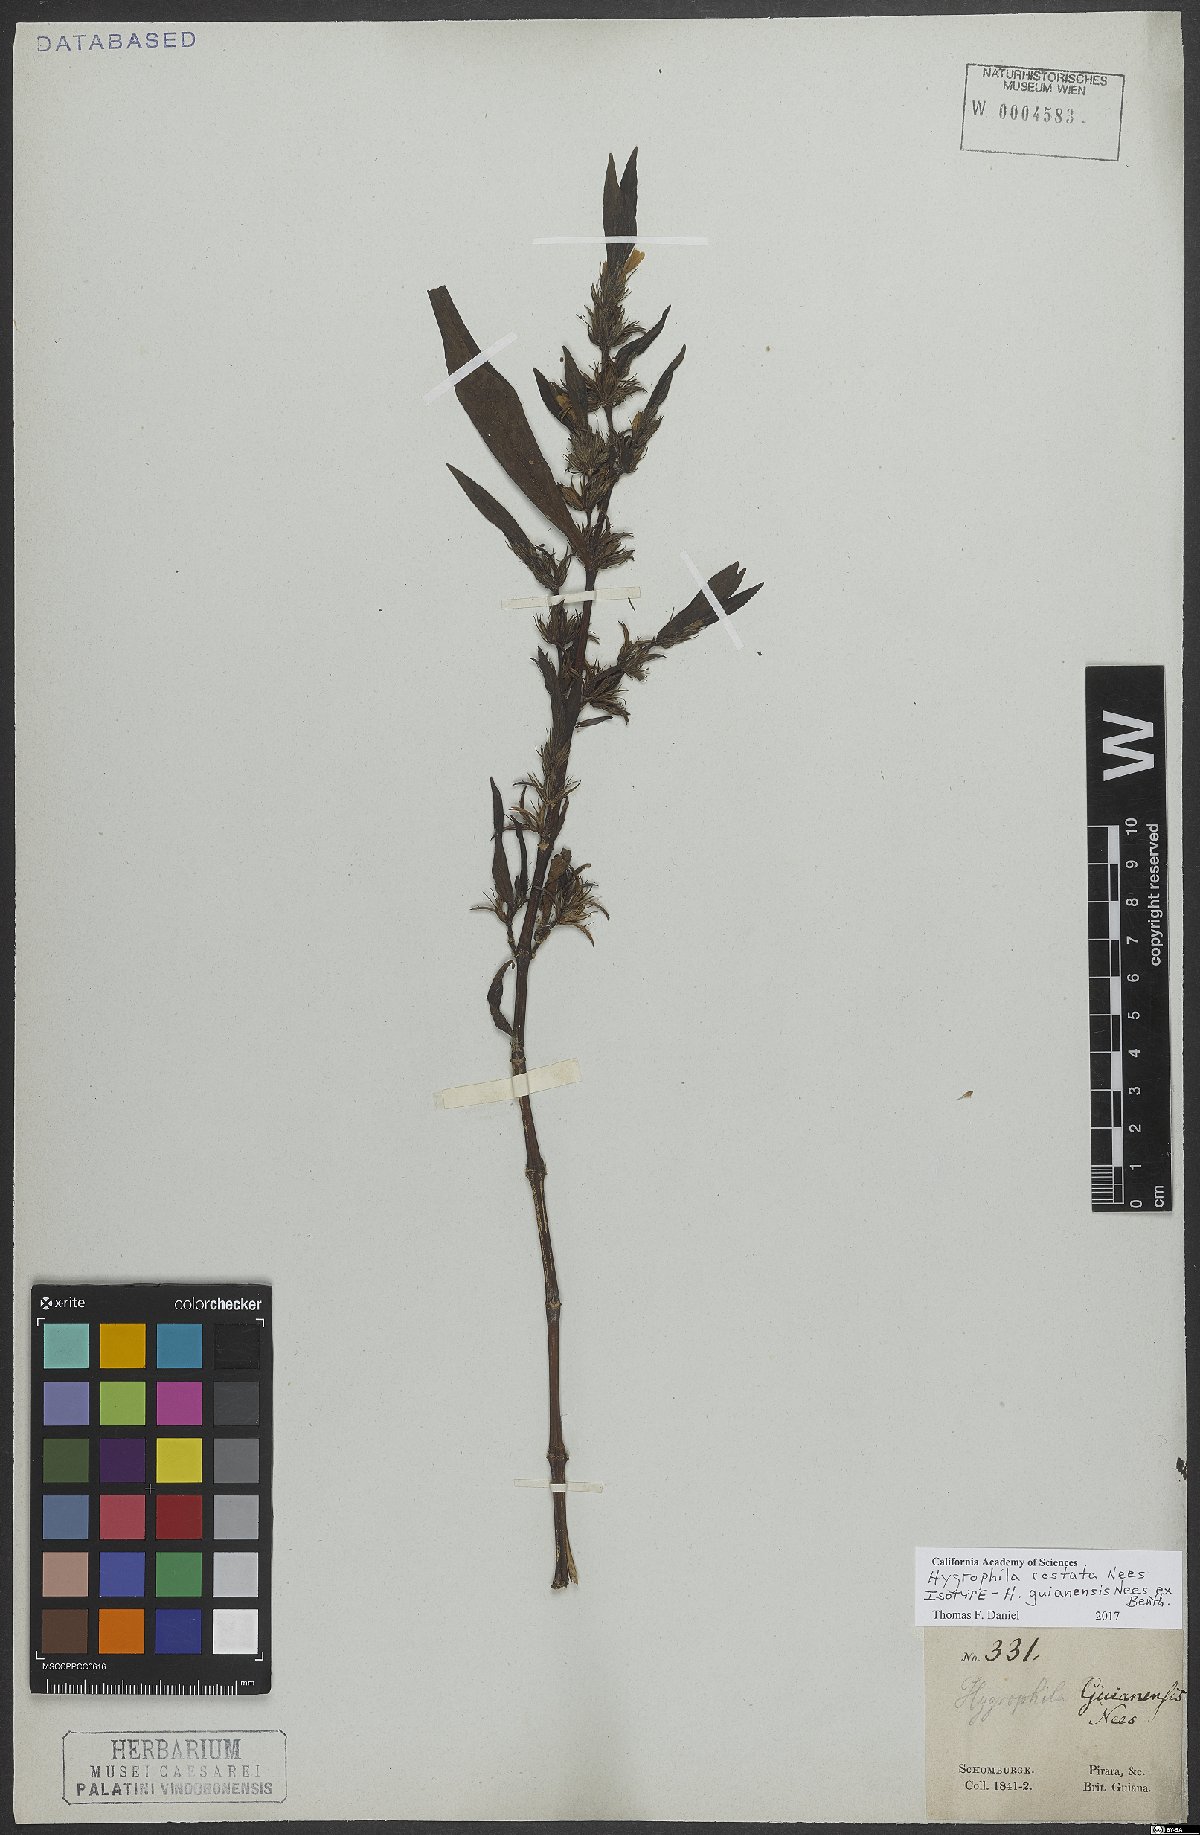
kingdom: Plantae
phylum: Tracheophyta
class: Magnoliopsida
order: Lamiales
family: Acanthaceae
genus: Hygrophila
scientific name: Hygrophila costata
